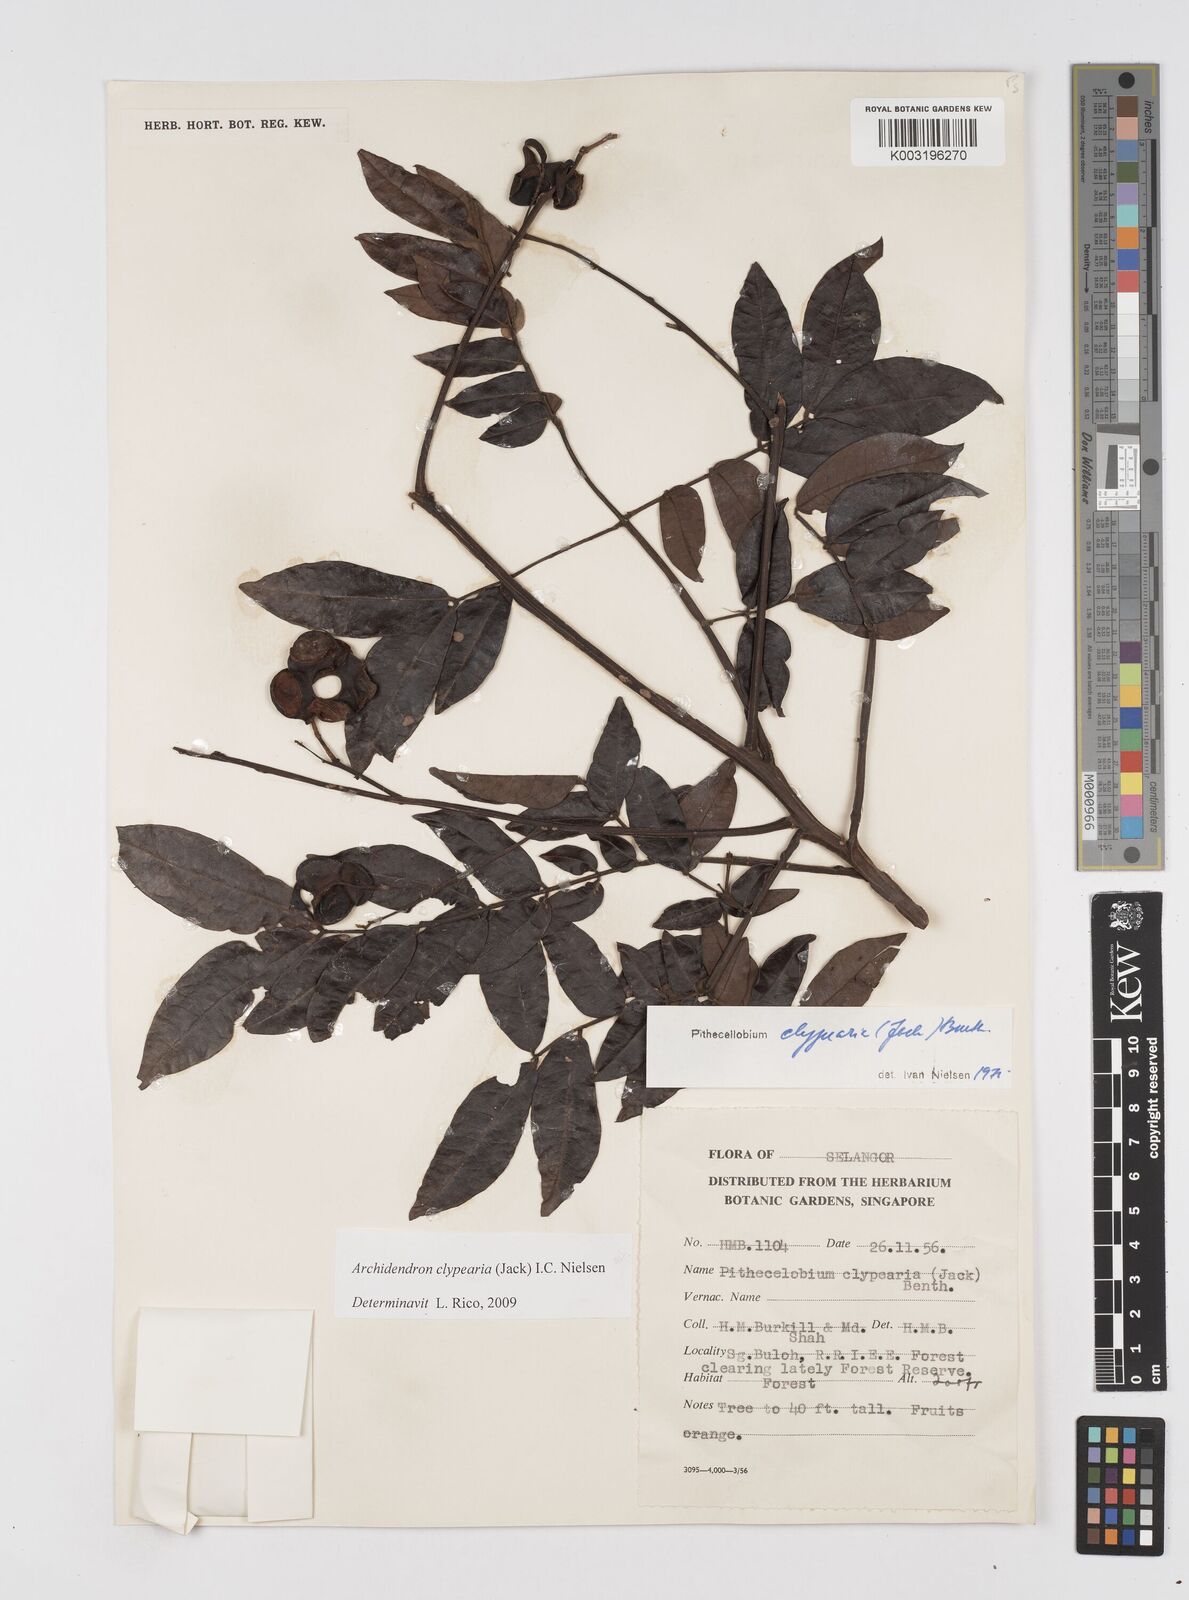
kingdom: Plantae
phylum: Tracheophyta
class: Magnoliopsida
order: Fabales
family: Fabaceae
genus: Archidendron
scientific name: Archidendron clypearia
